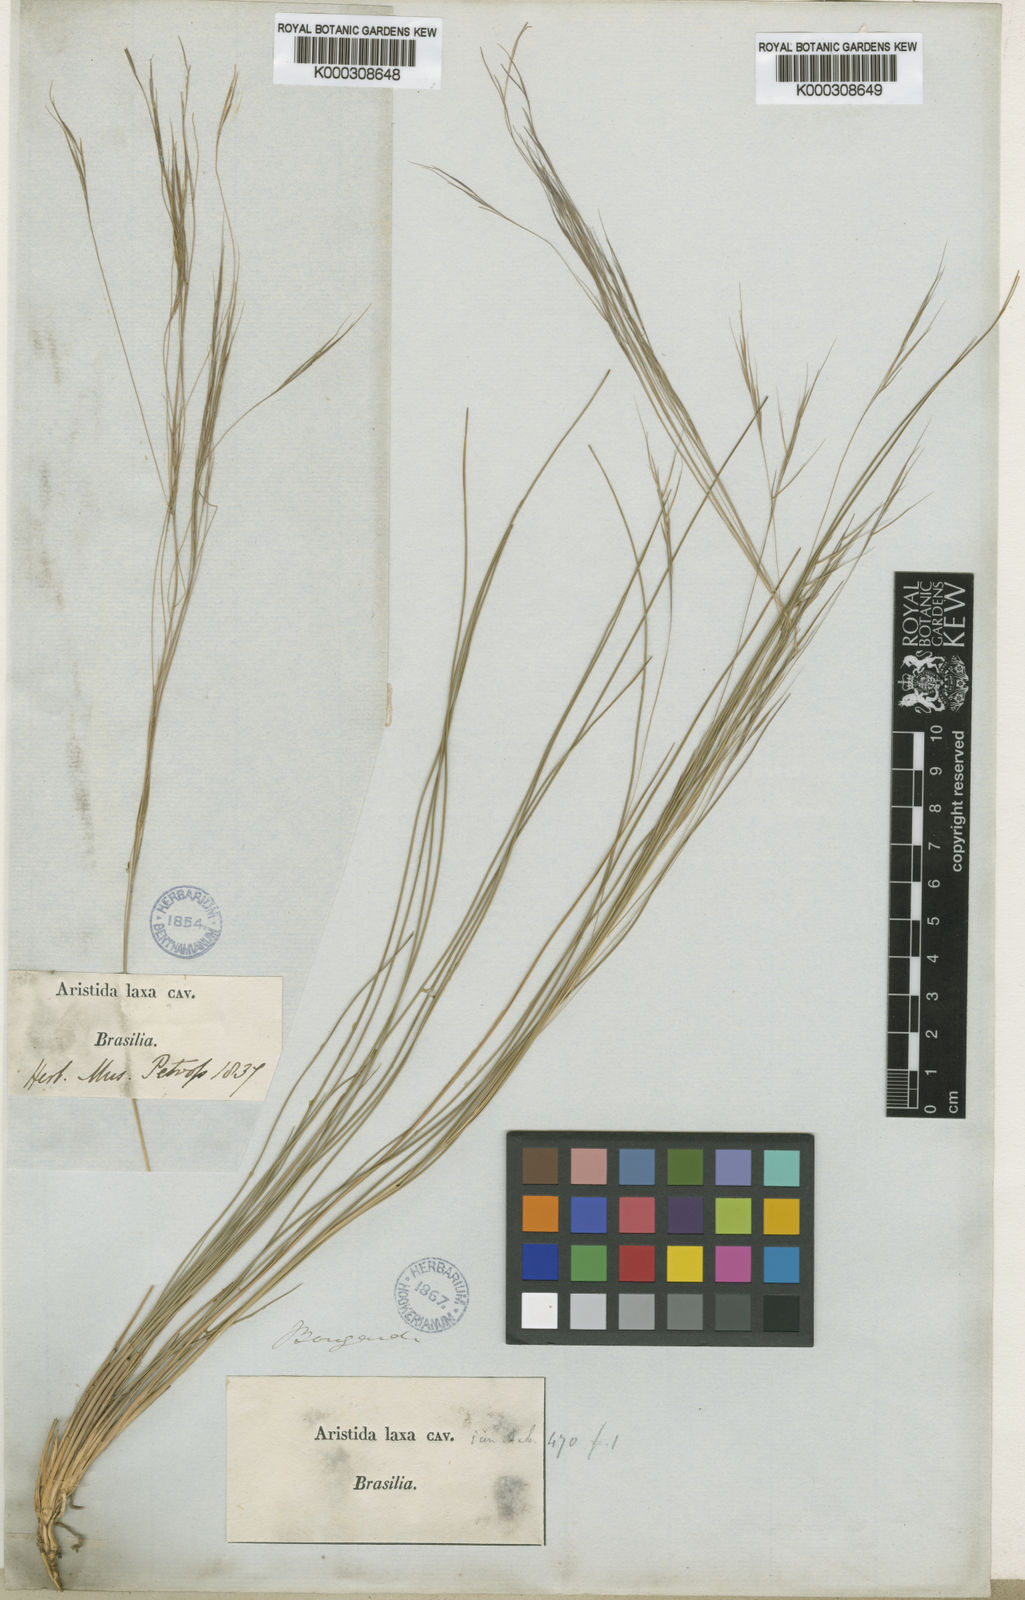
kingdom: Plantae
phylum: Tracheophyta
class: Liliopsida
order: Poales
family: Poaceae
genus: Aristida
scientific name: Aristida flaccida
